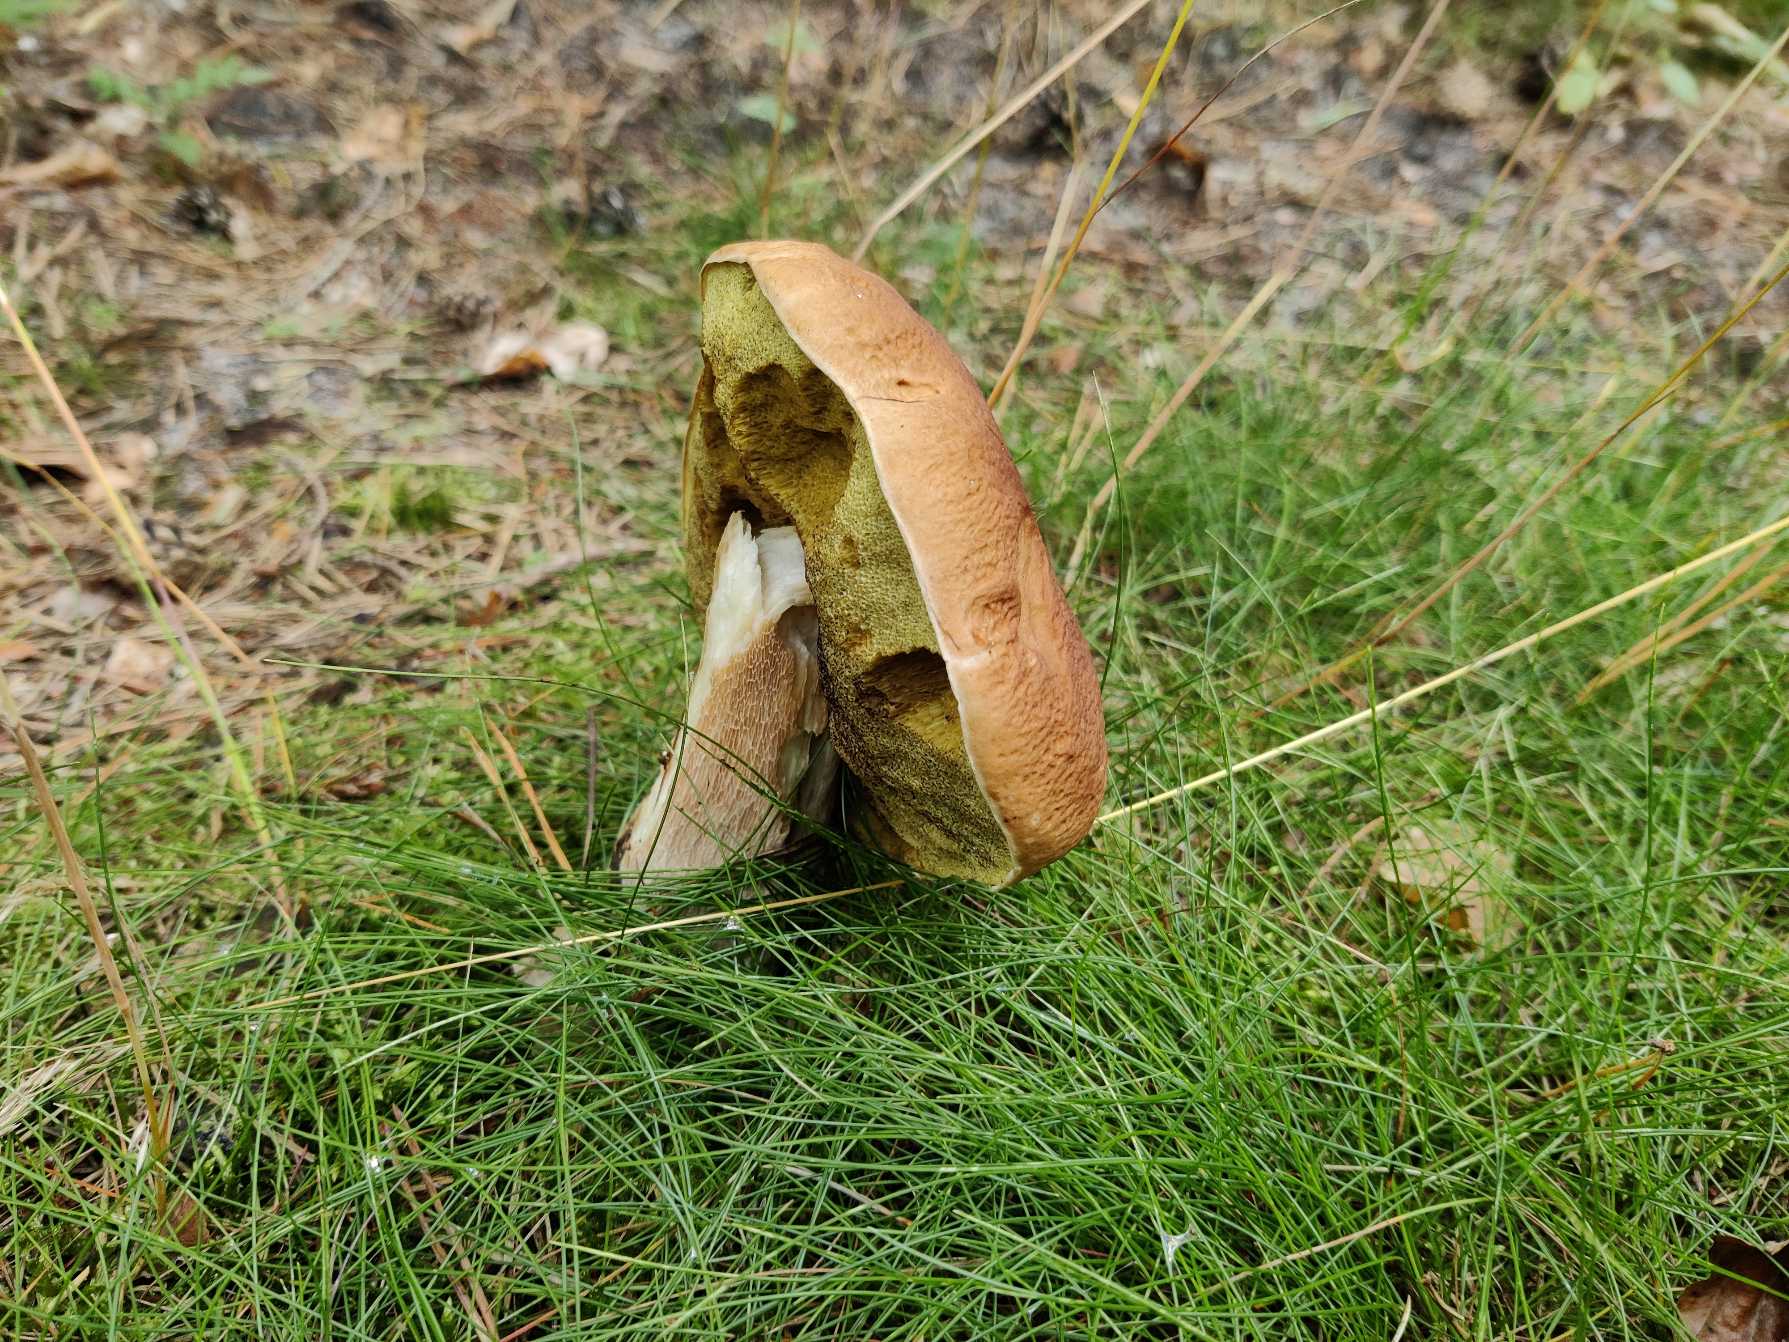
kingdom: Fungi
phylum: Basidiomycota
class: Agaricomycetes
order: Boletales
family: Boletaceae
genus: Boletus
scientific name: Boletus edulis
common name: Spiselig rørhat/karl johan
